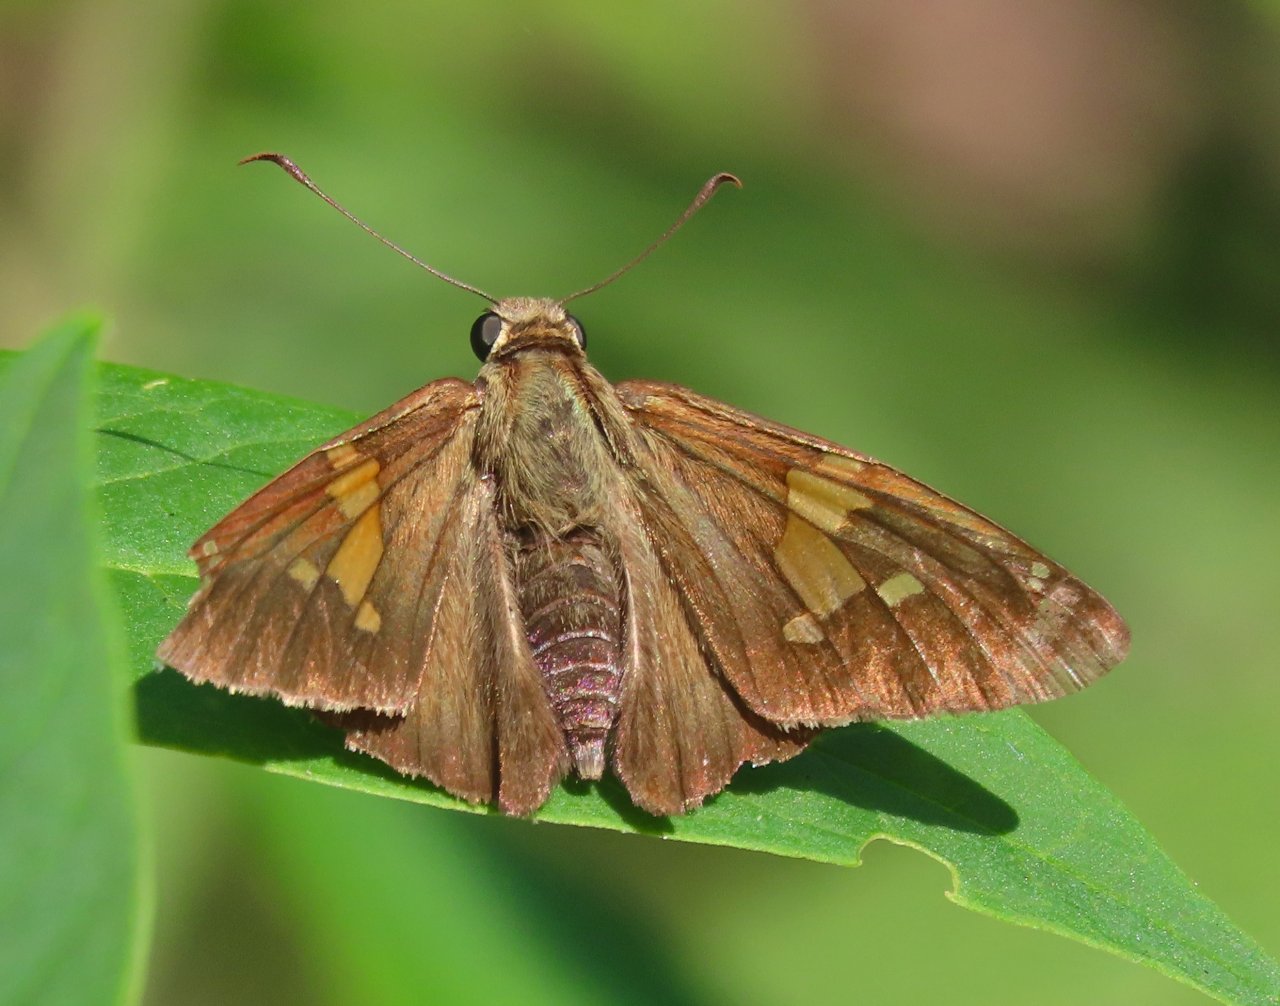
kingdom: Animalia
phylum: Arthropoda
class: Insecta
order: Lepidoptera
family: Hesperiidae
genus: Epargyreus
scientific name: Epargyreus clarus
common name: Silver-spotted Skipper
